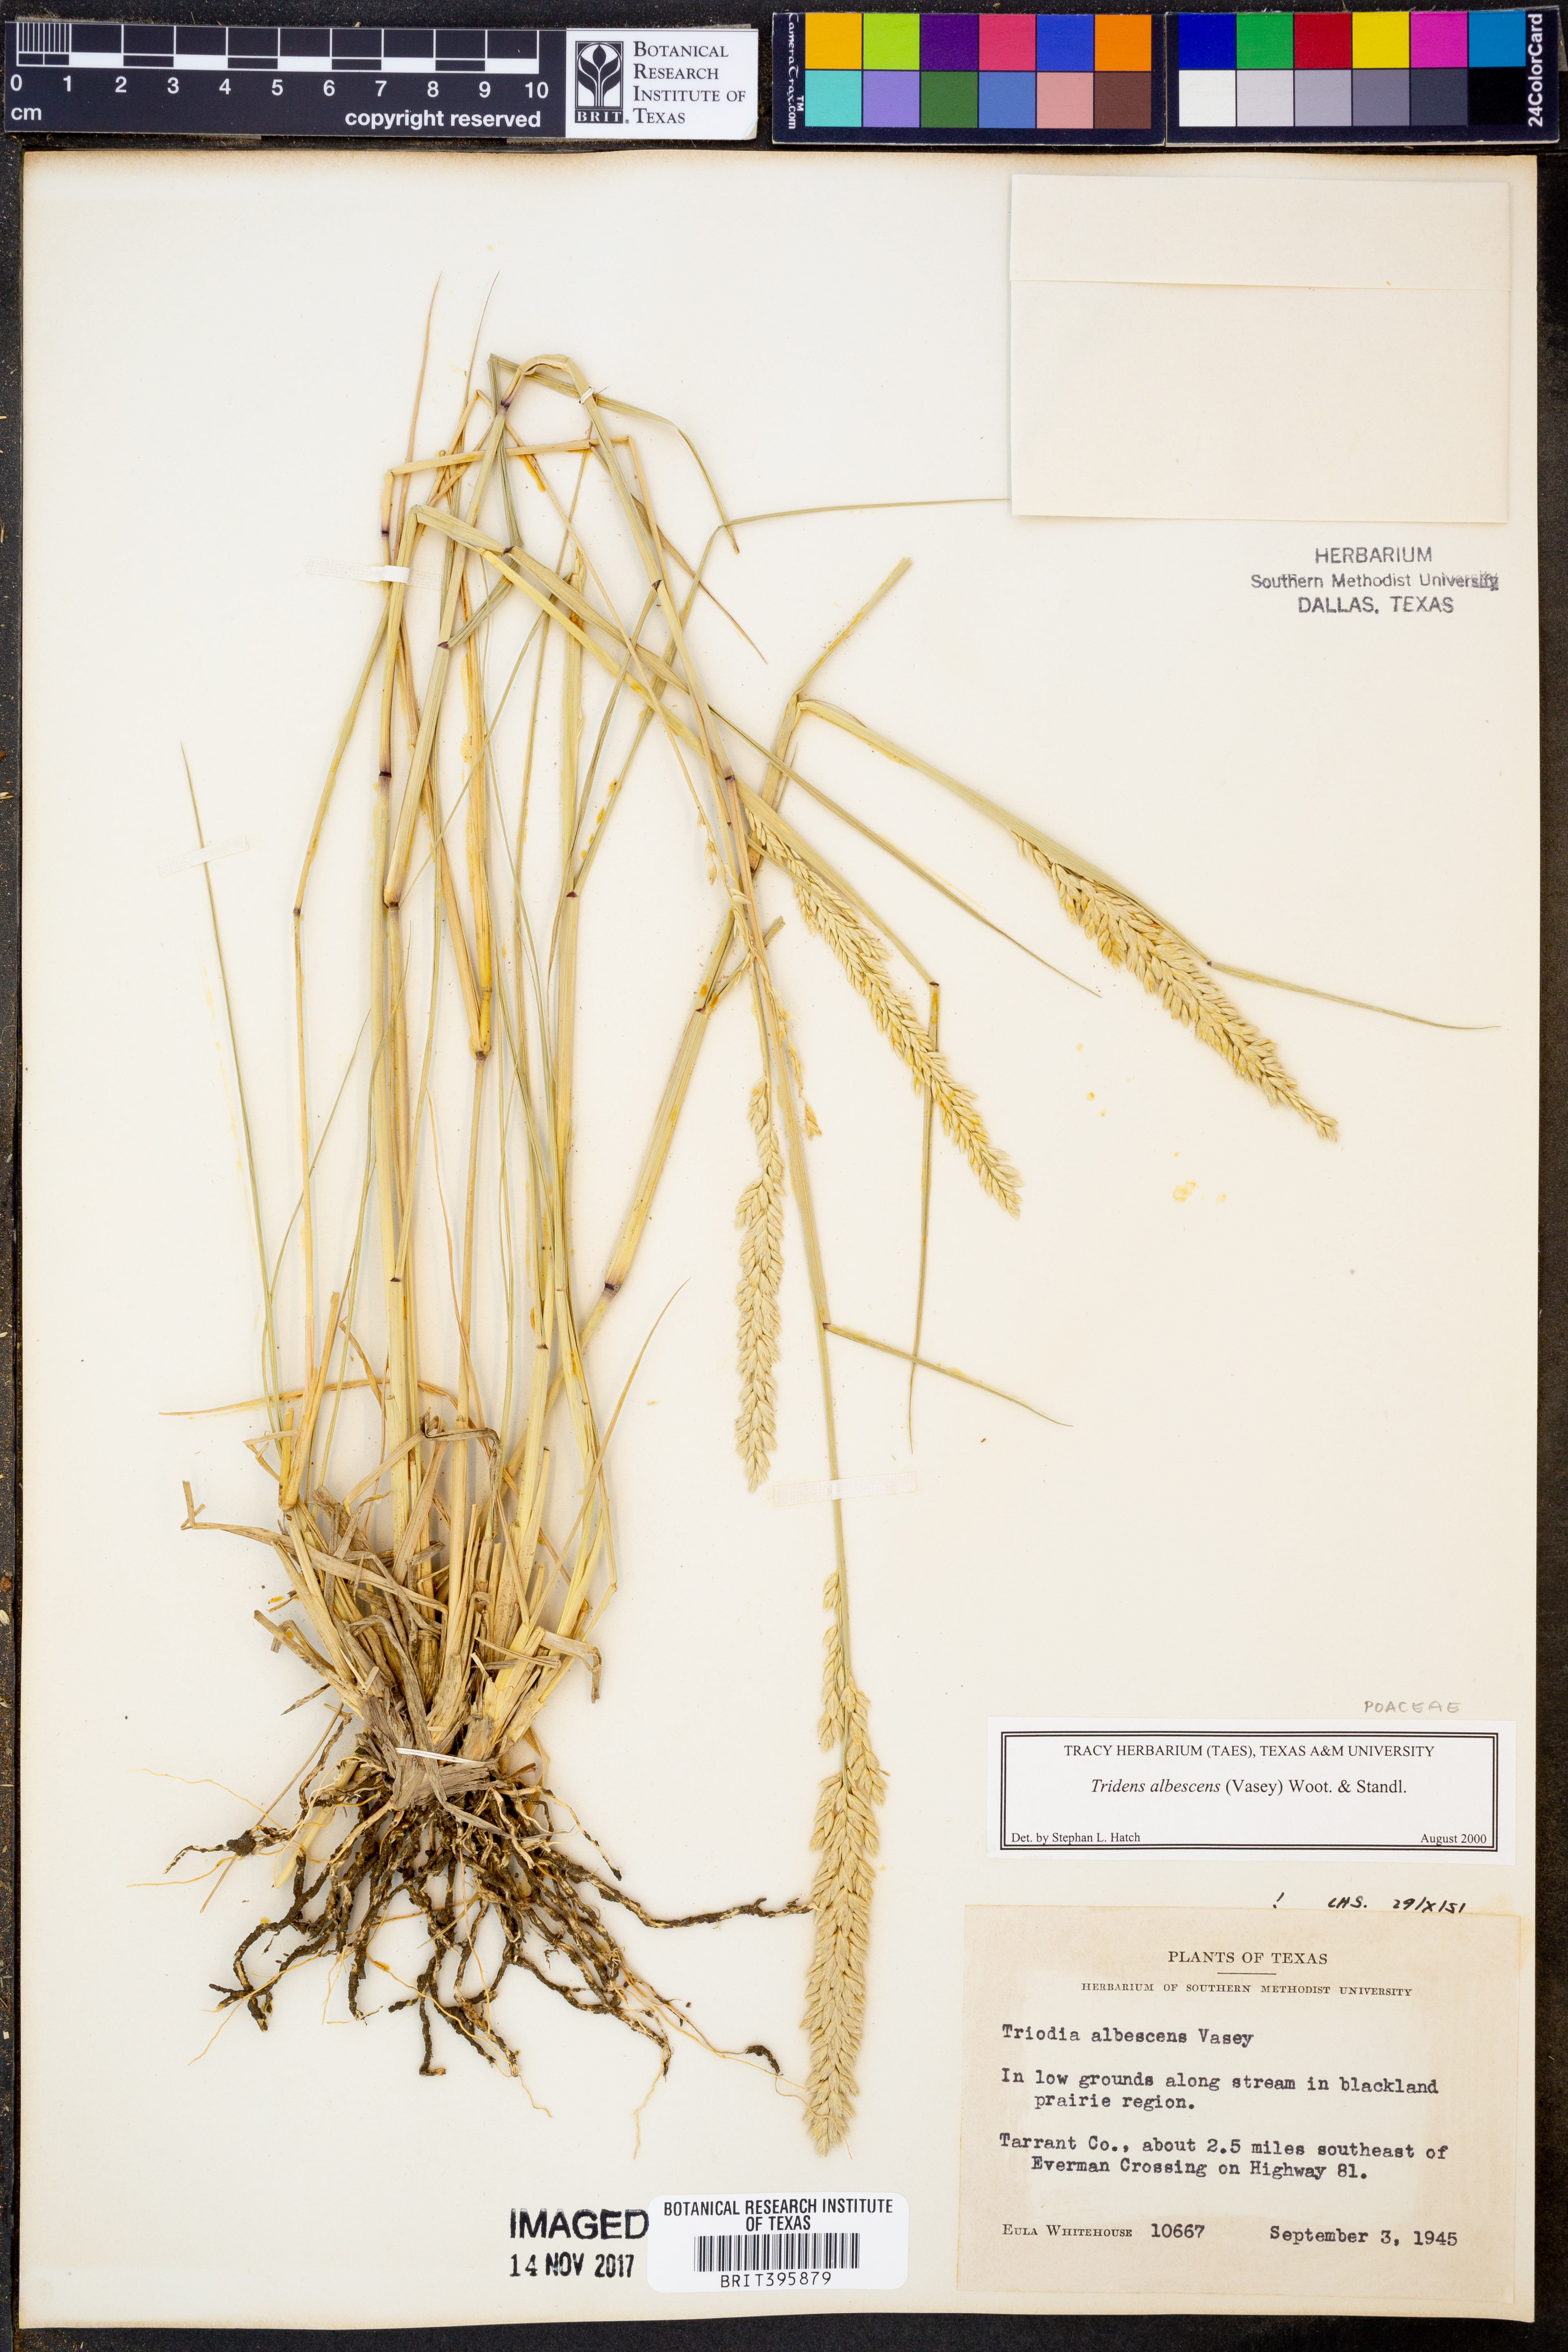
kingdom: Plantae
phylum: Tracheophyta
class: Liliopsida
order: Poales
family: Poaceae
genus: Tridens
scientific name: Tridens albescens
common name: White tridens
